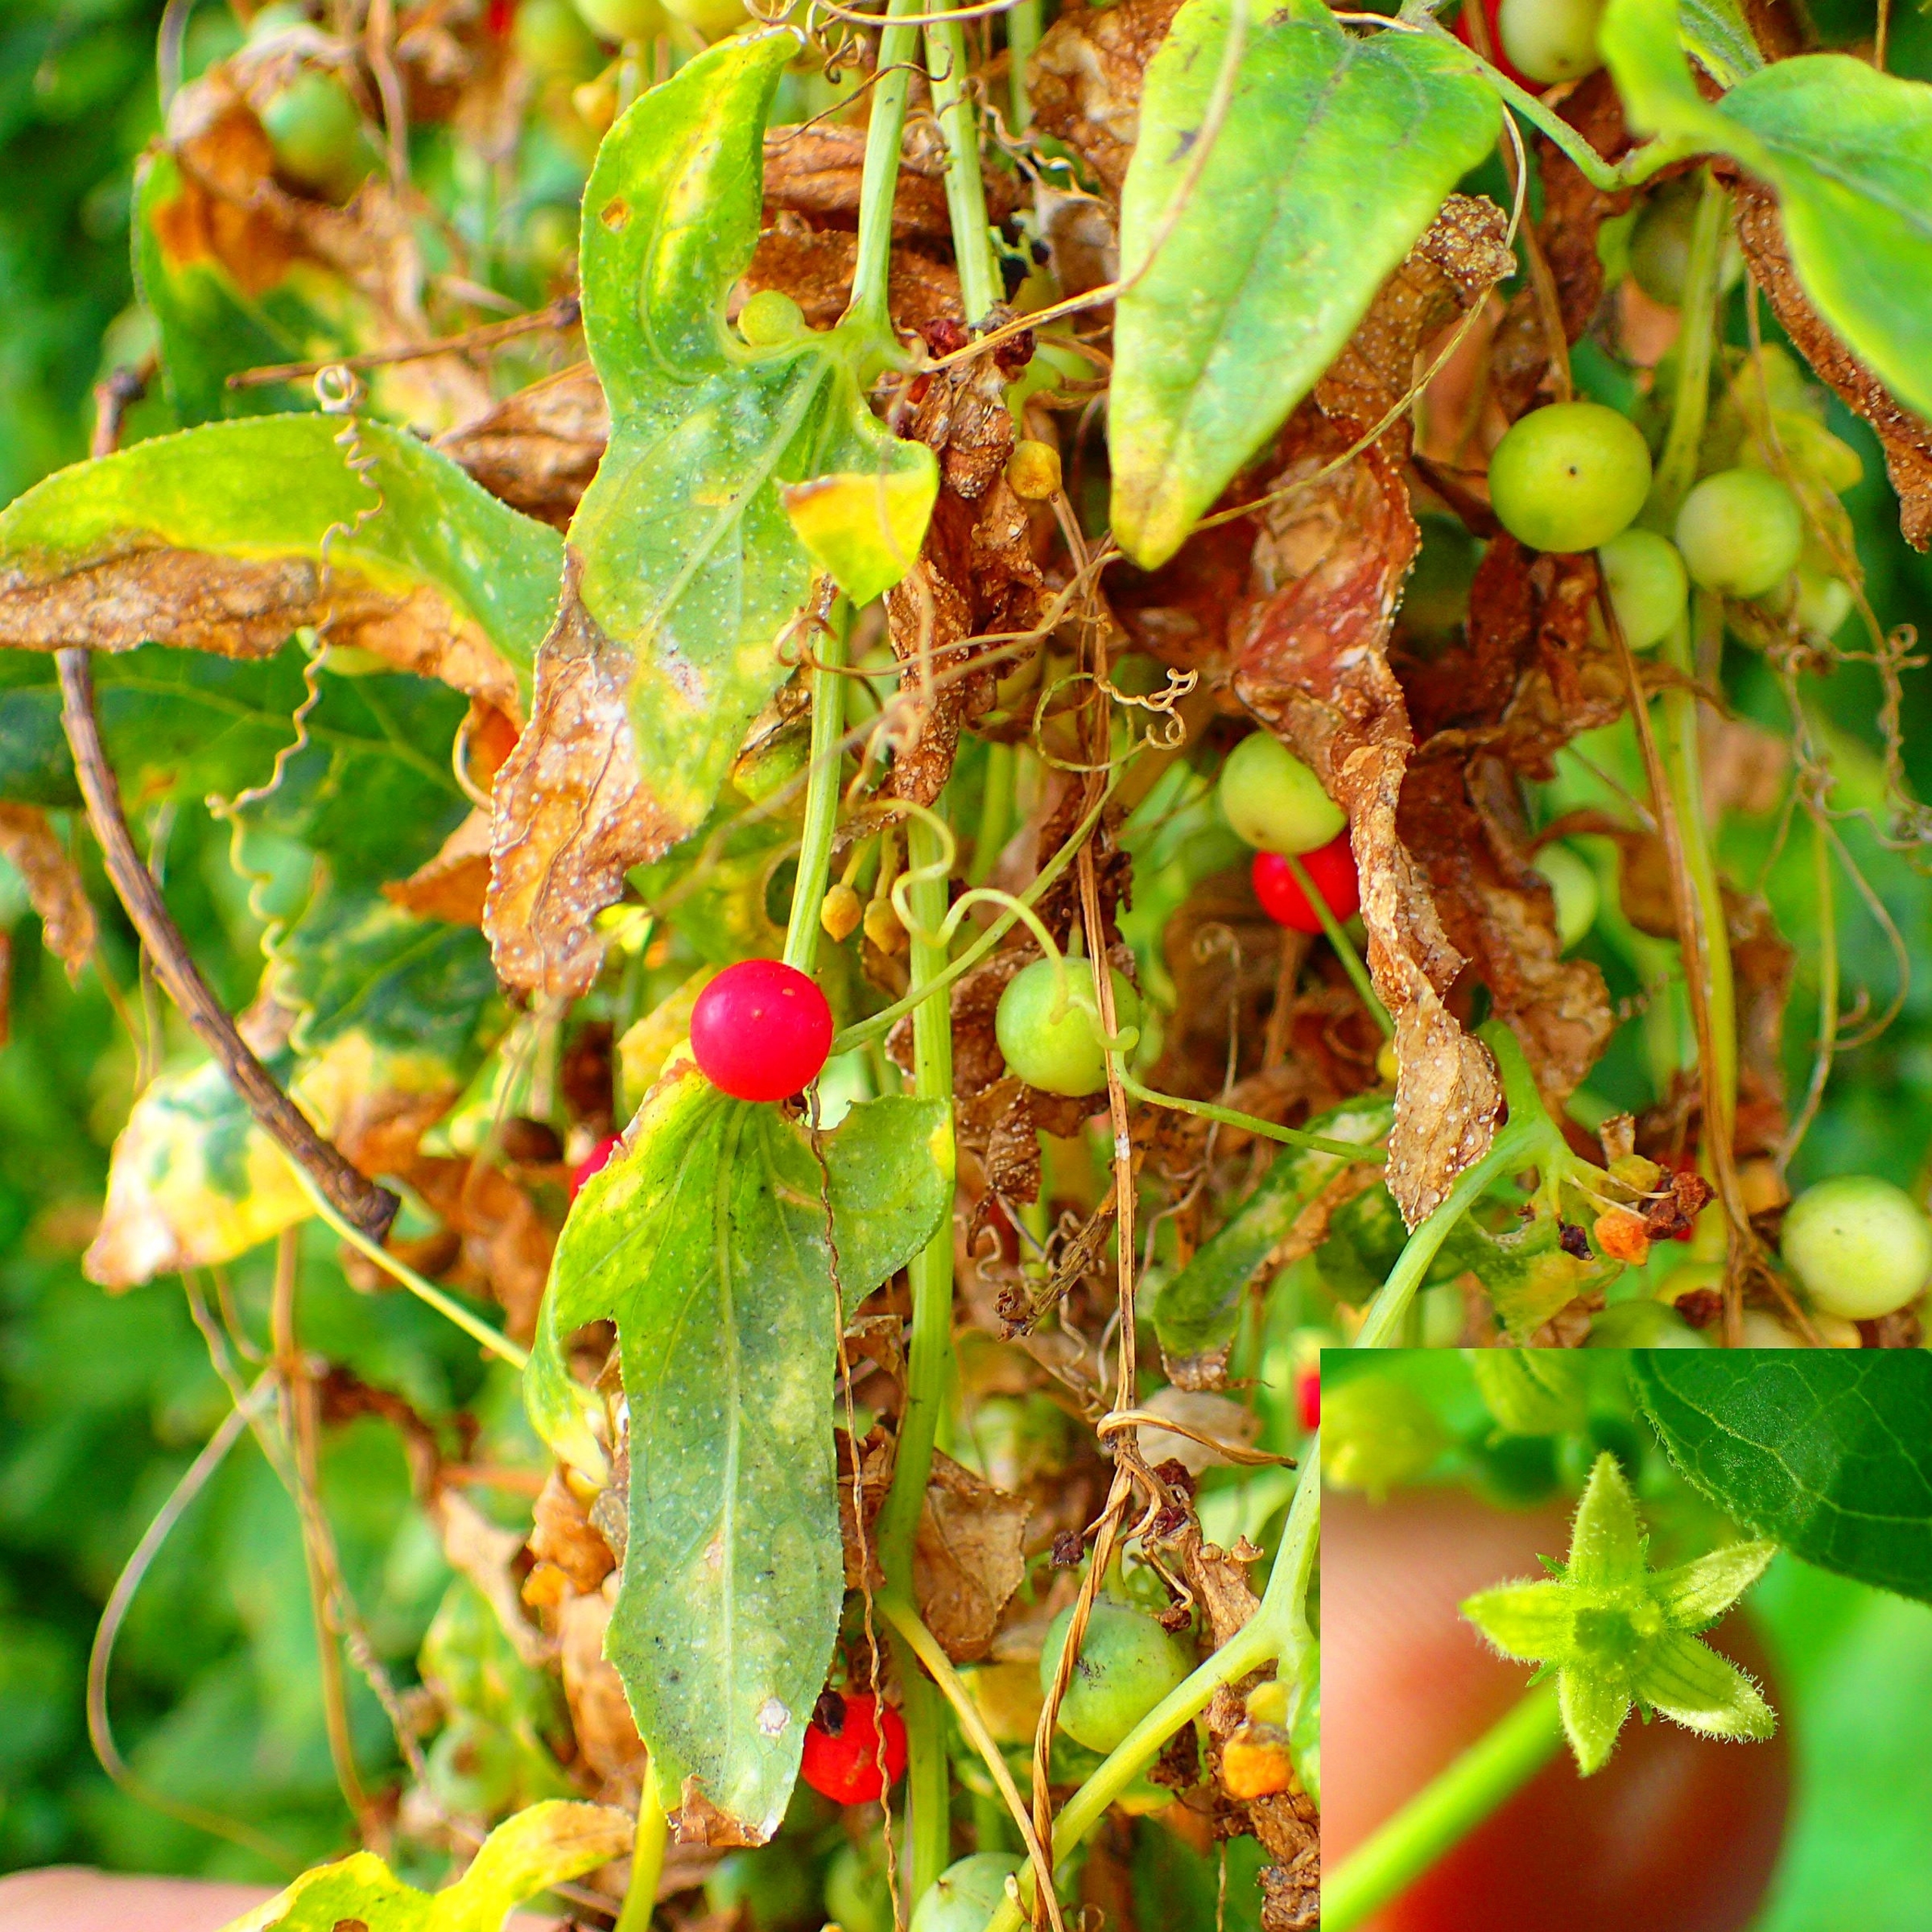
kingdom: Plantae
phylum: Tracheophyta
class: Magnoliopsida
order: Cucurbitales
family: Cucurbitaceae
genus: Bryonia
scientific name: Bryonia dioica
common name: Tvebo galdebær
